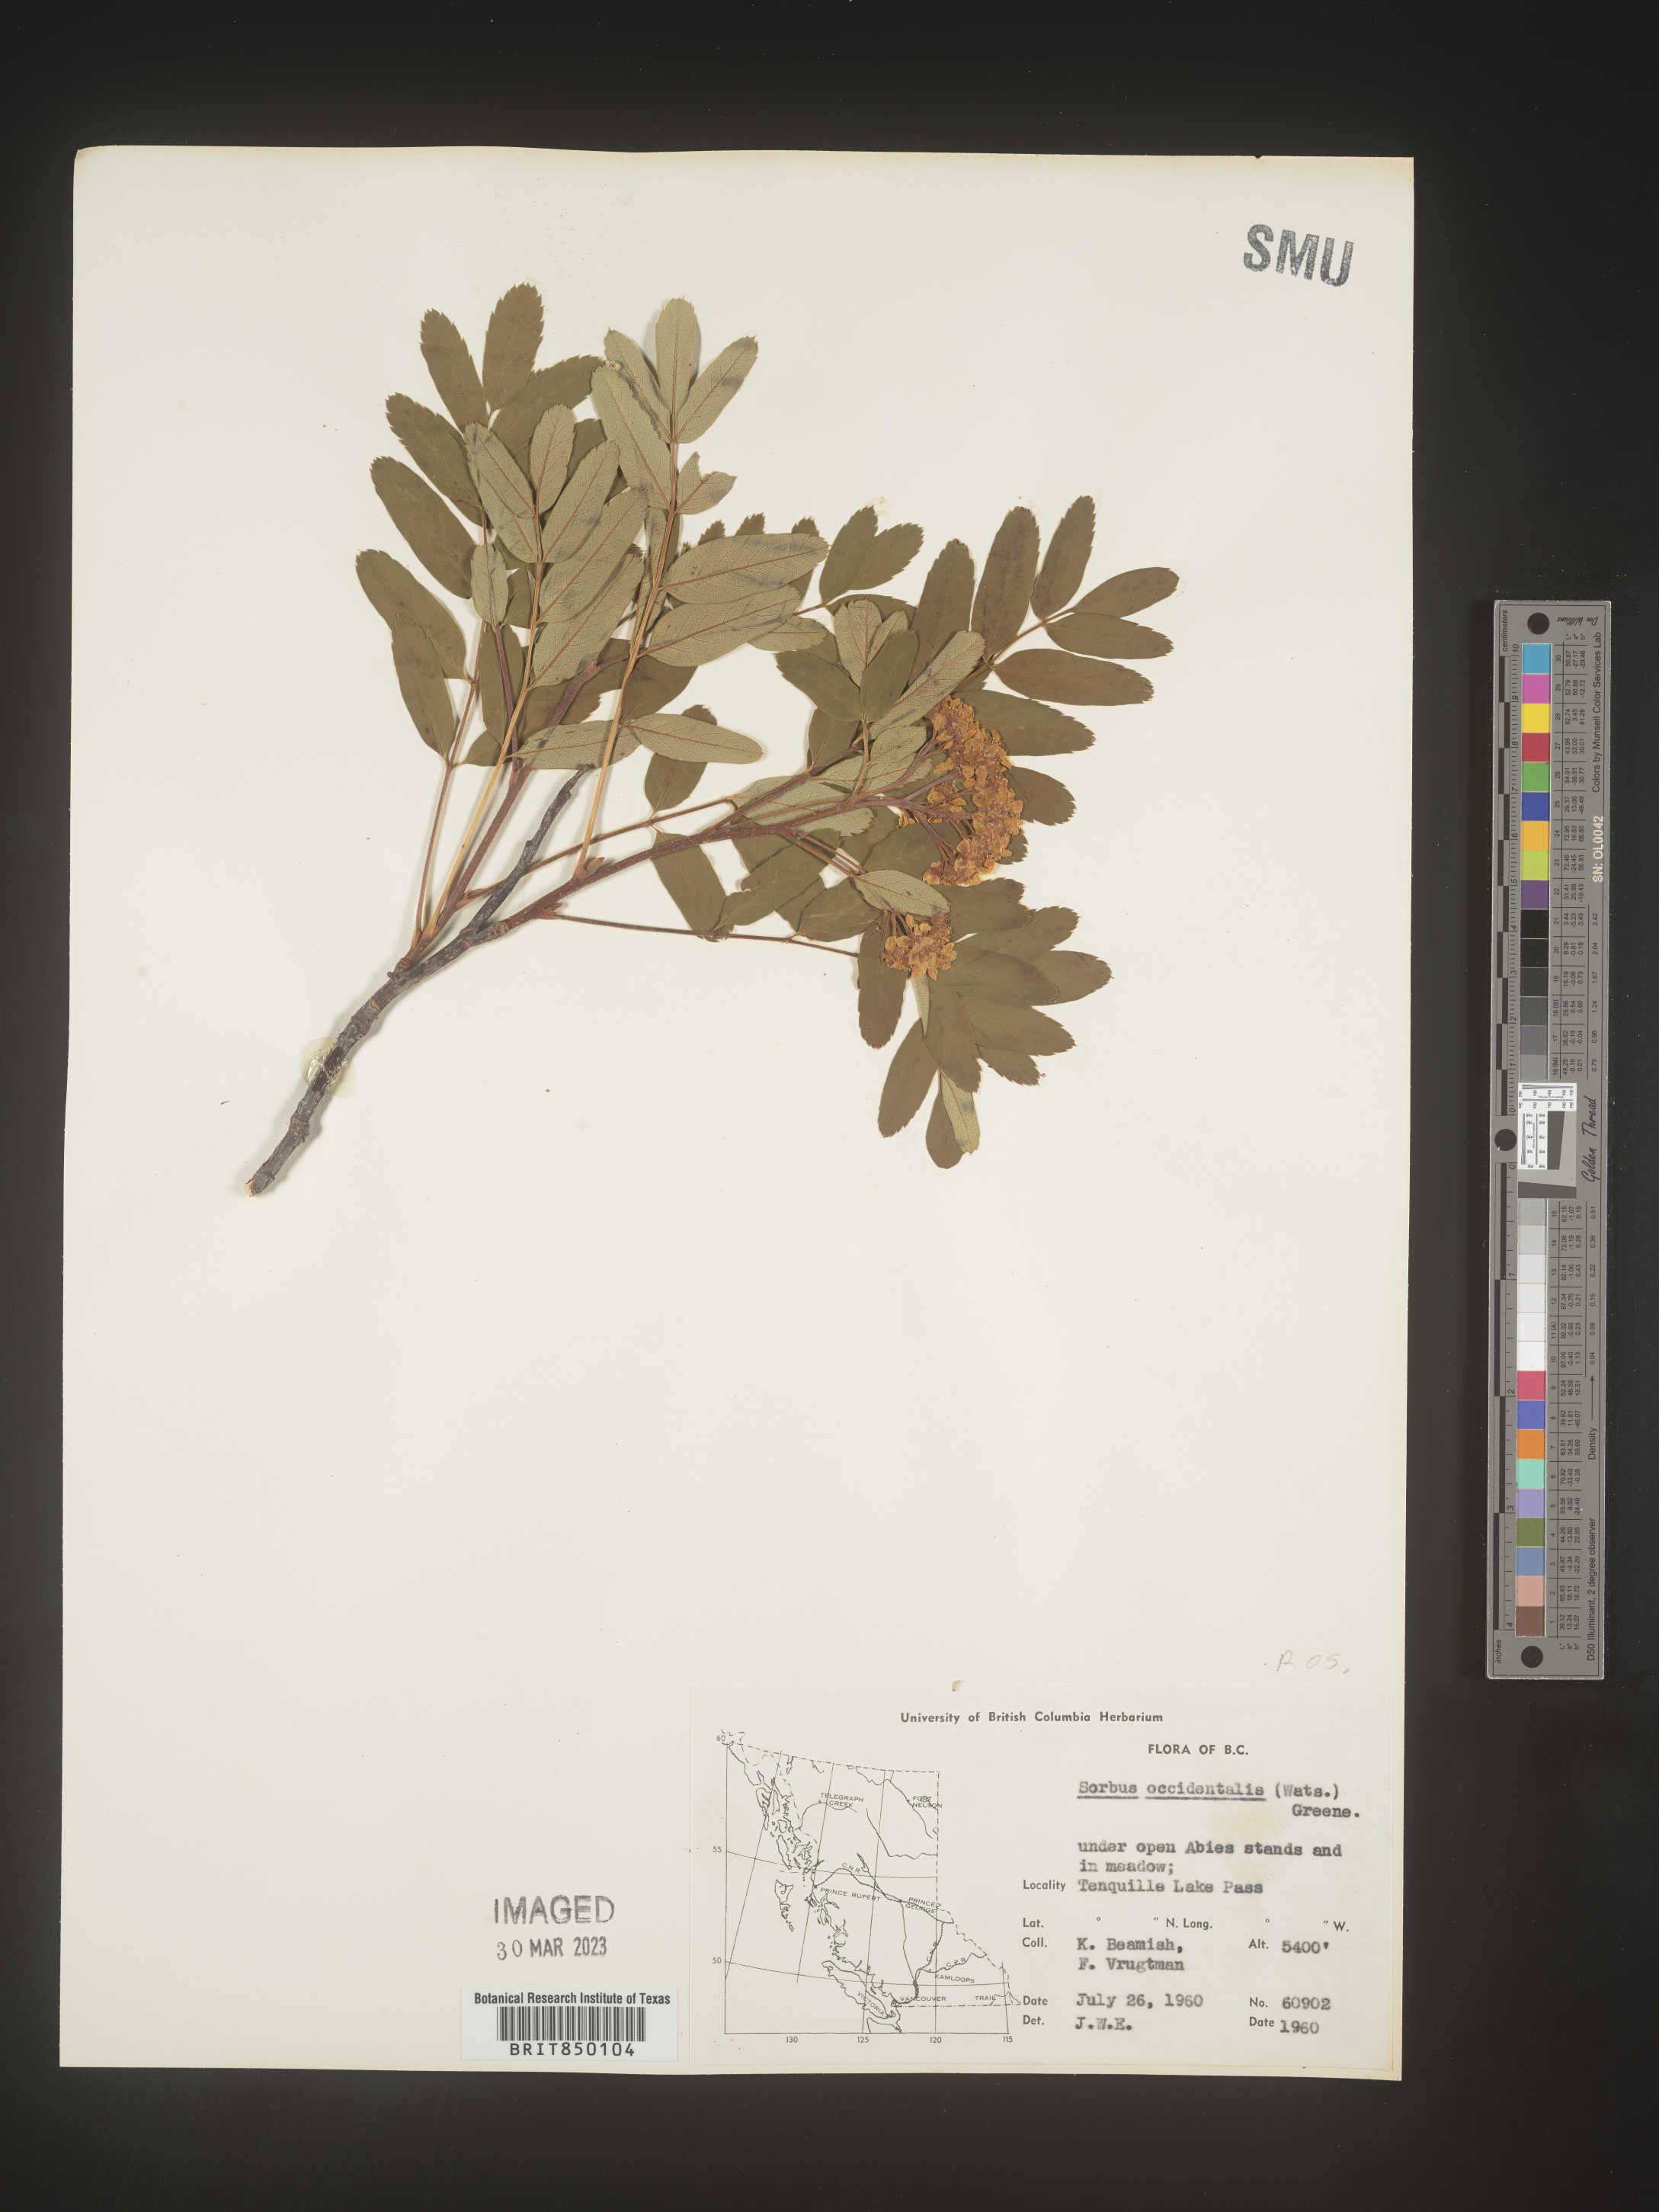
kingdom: Plantae
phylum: Tracheophyta
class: Magnoliopsida
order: Rosales
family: Rosaceae
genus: Sorbus
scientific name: Sorbus
